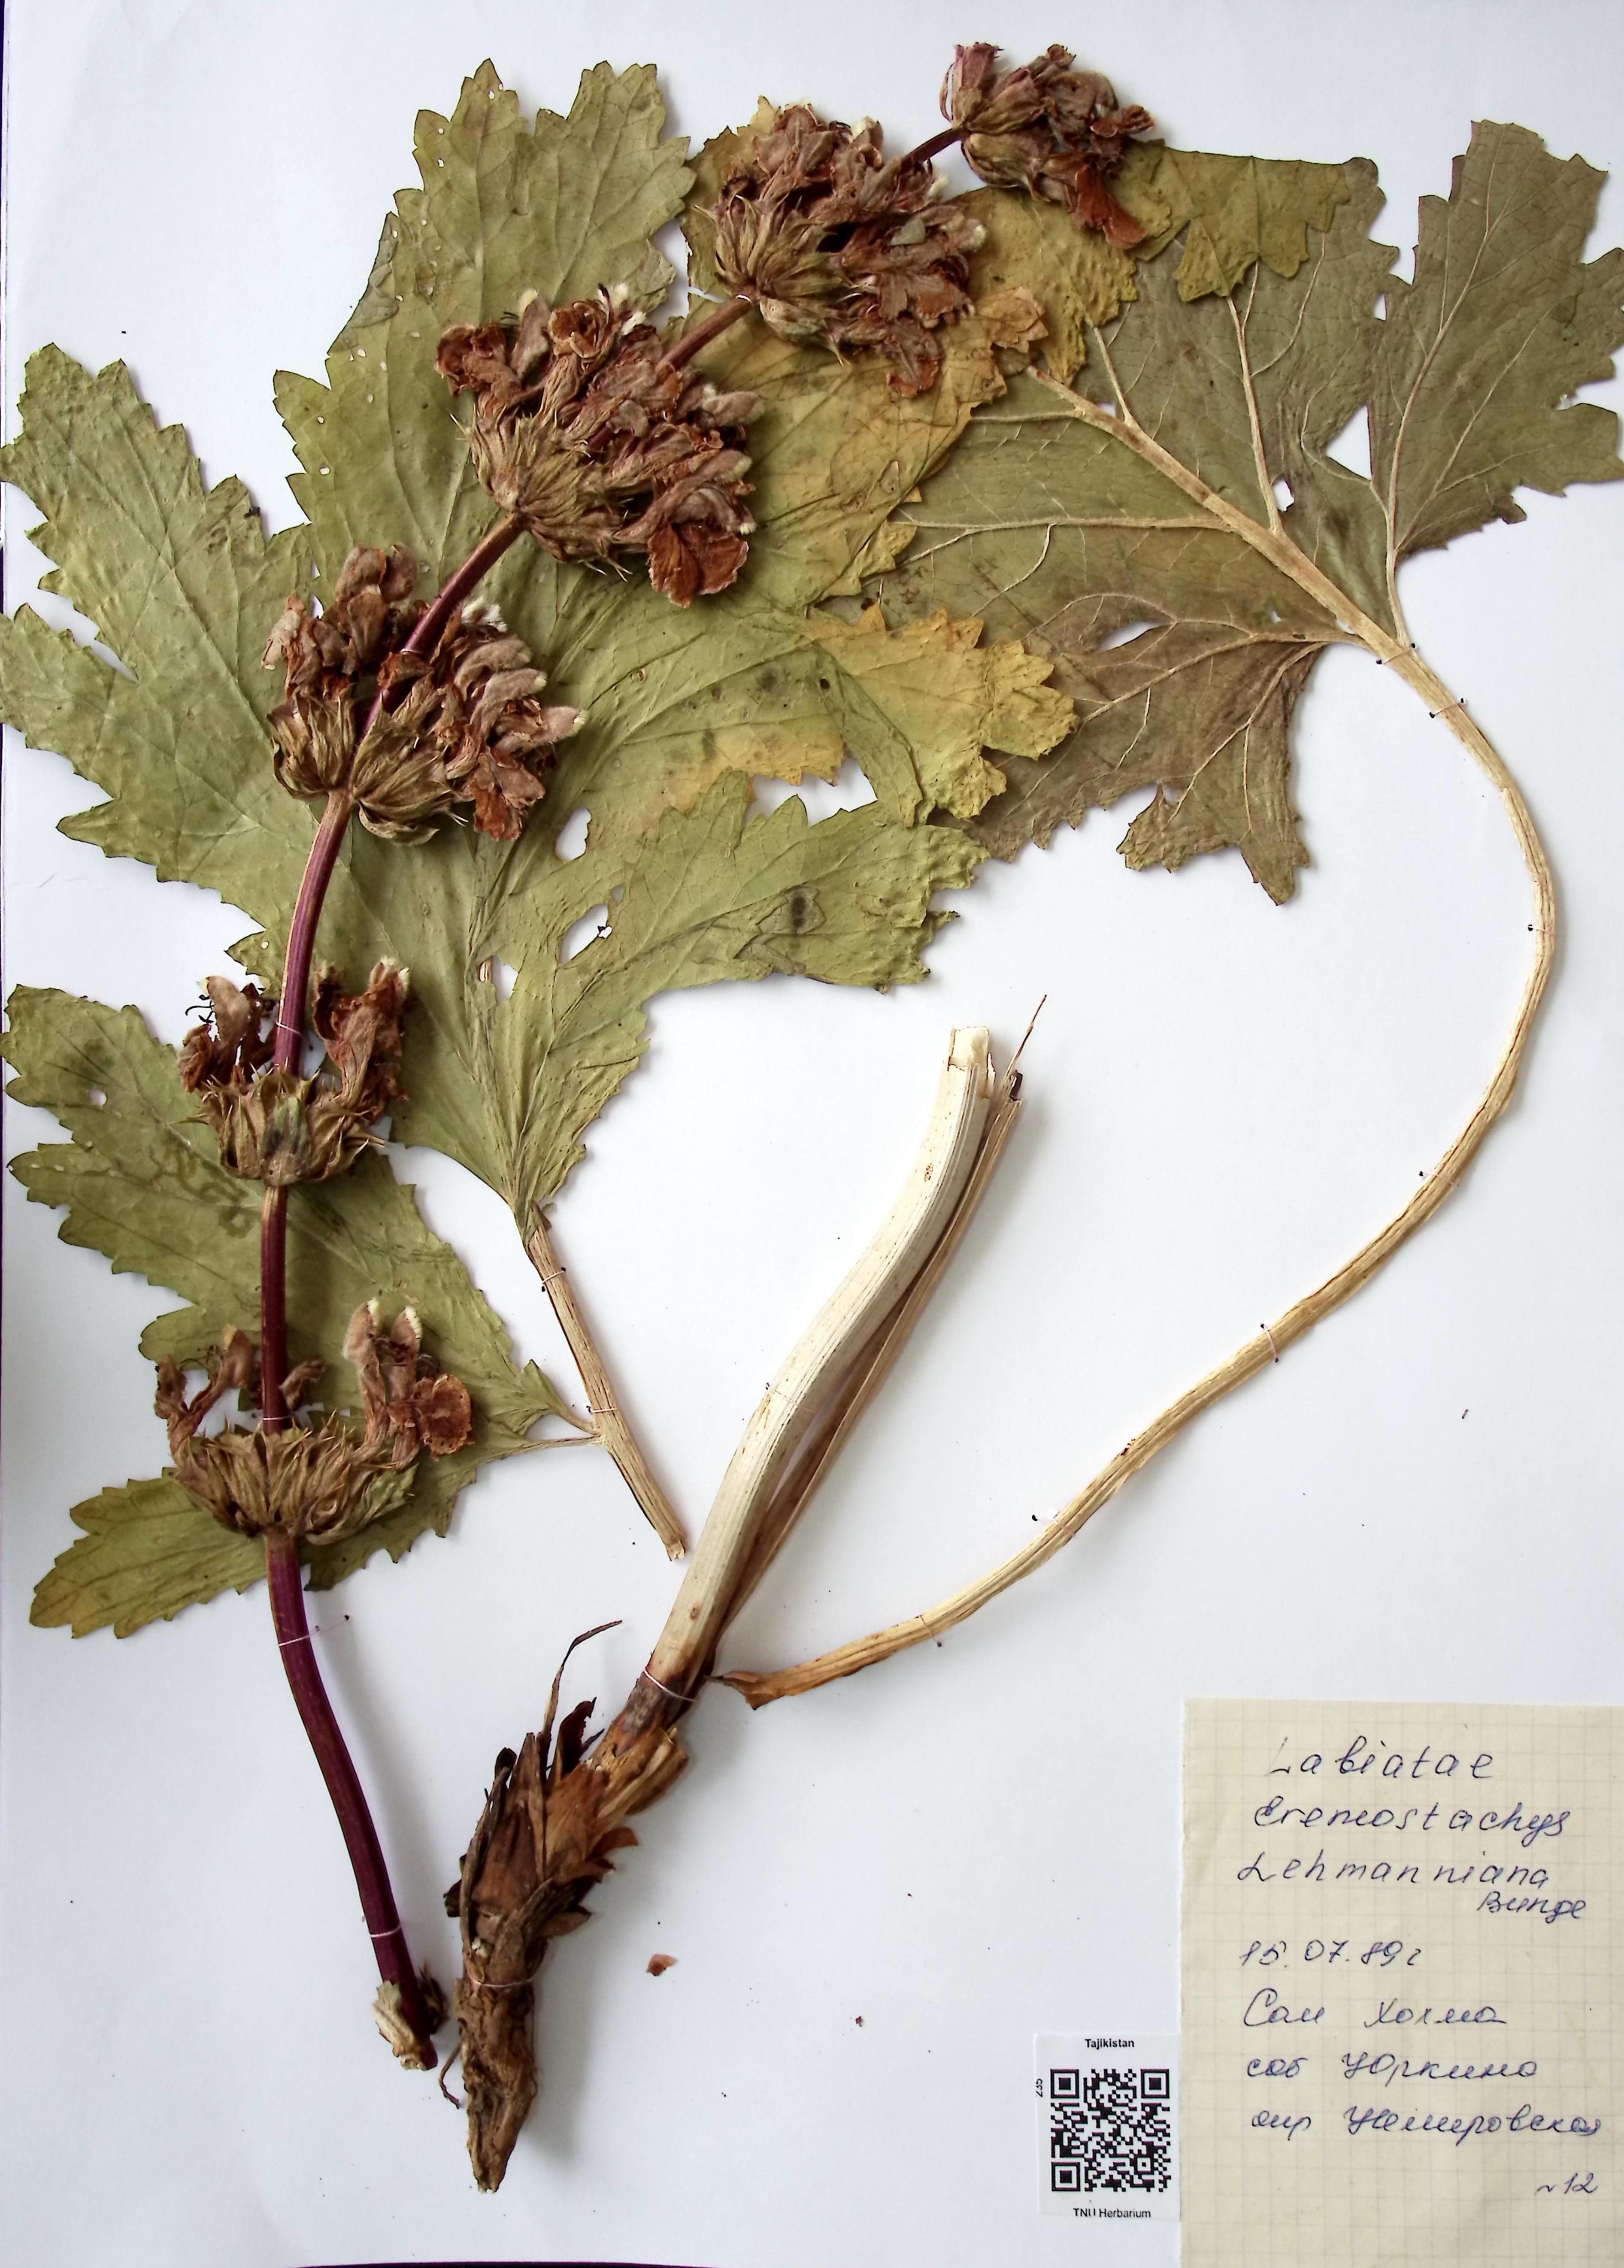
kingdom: Plantae
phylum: Tracheophyta
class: Magnoliopsida
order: Lamiales
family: Lamiaceae
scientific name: Lamiaceae
